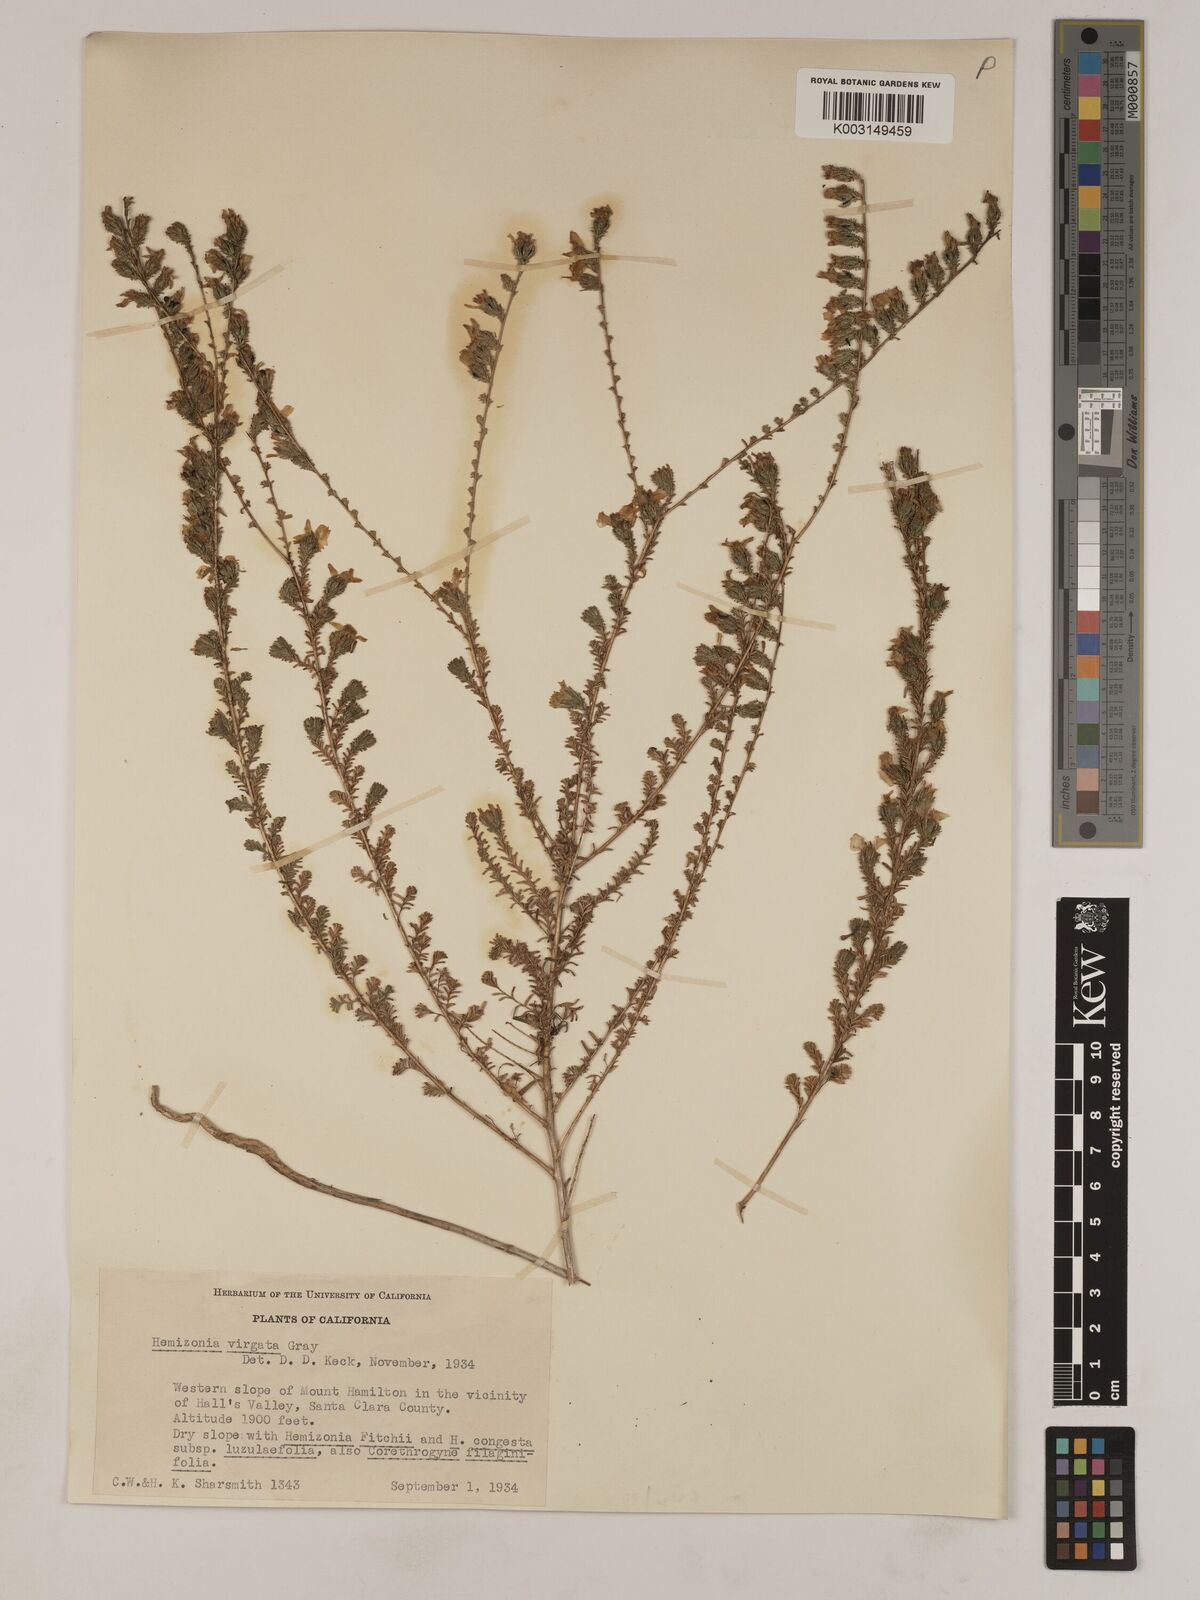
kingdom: Plantae
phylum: Tracheophyta
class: Magnoliopsida
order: Asterales
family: Asteraceae
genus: Holocarpha
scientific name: Holocarpha virgata
